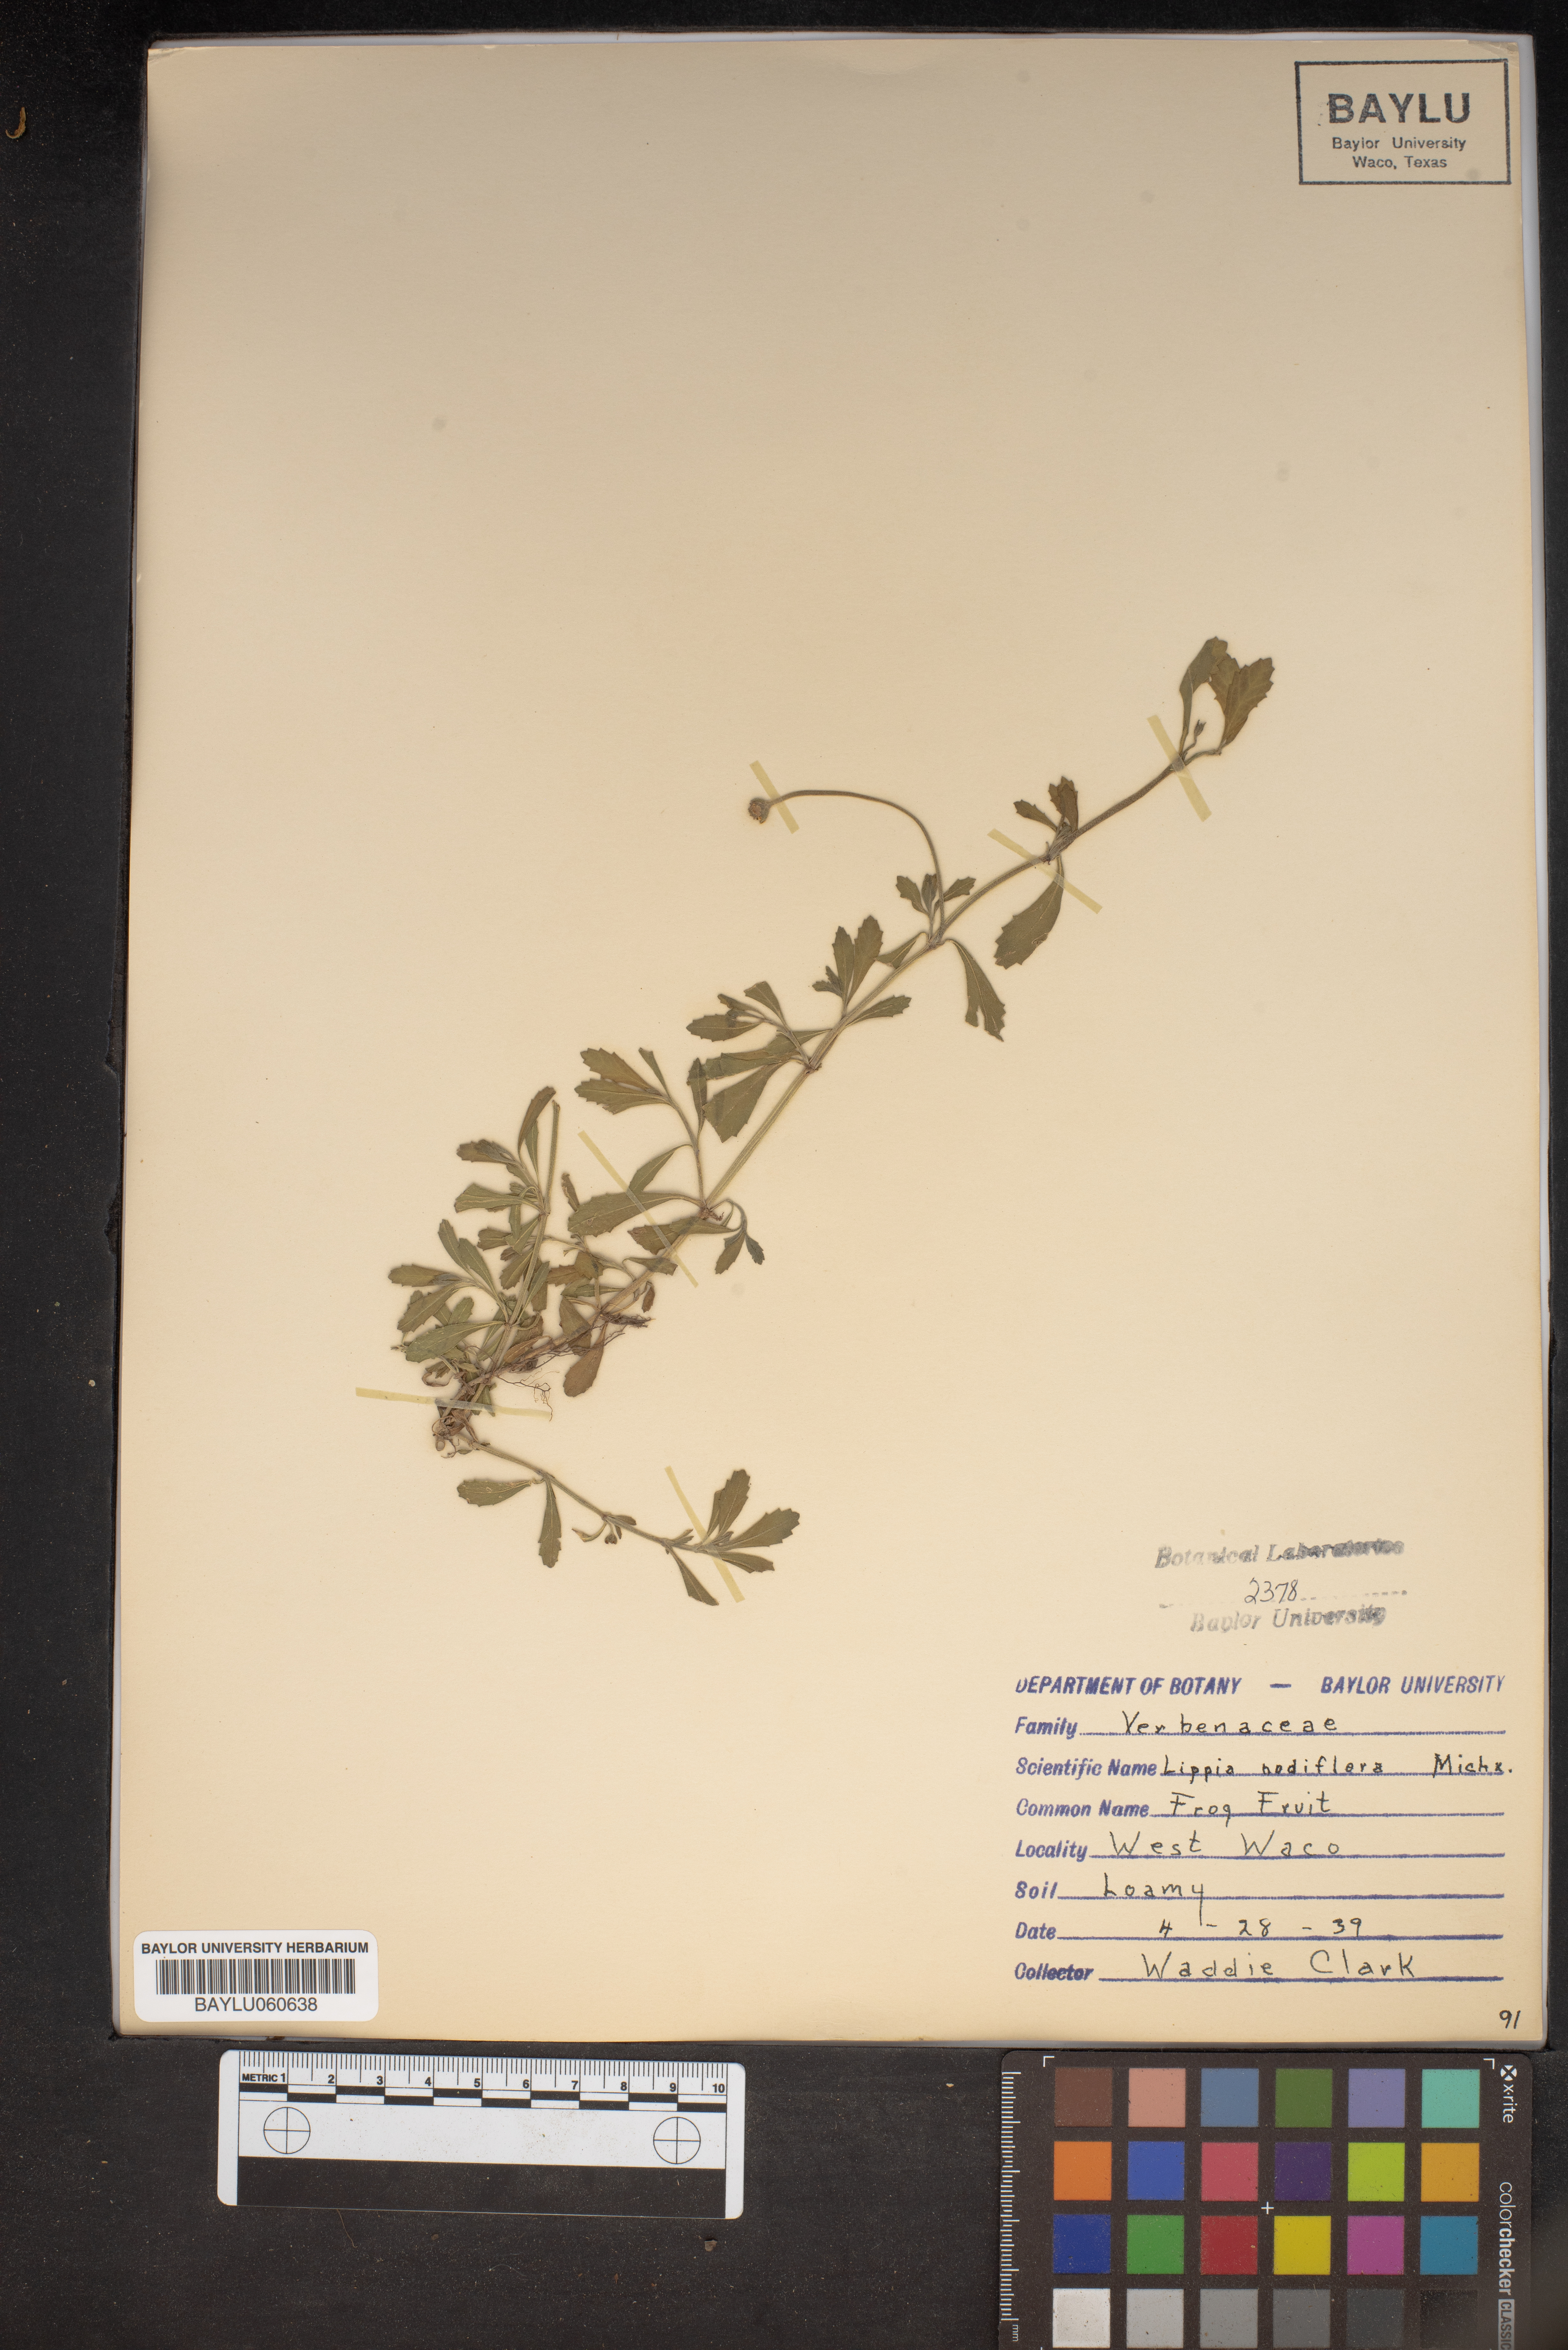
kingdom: Plantae
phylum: Tracheophyta
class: Magnoliopsida
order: Lamiales
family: Verbenaceae
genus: Phyla
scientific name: Phyla nodiflora
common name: Frogfruit
